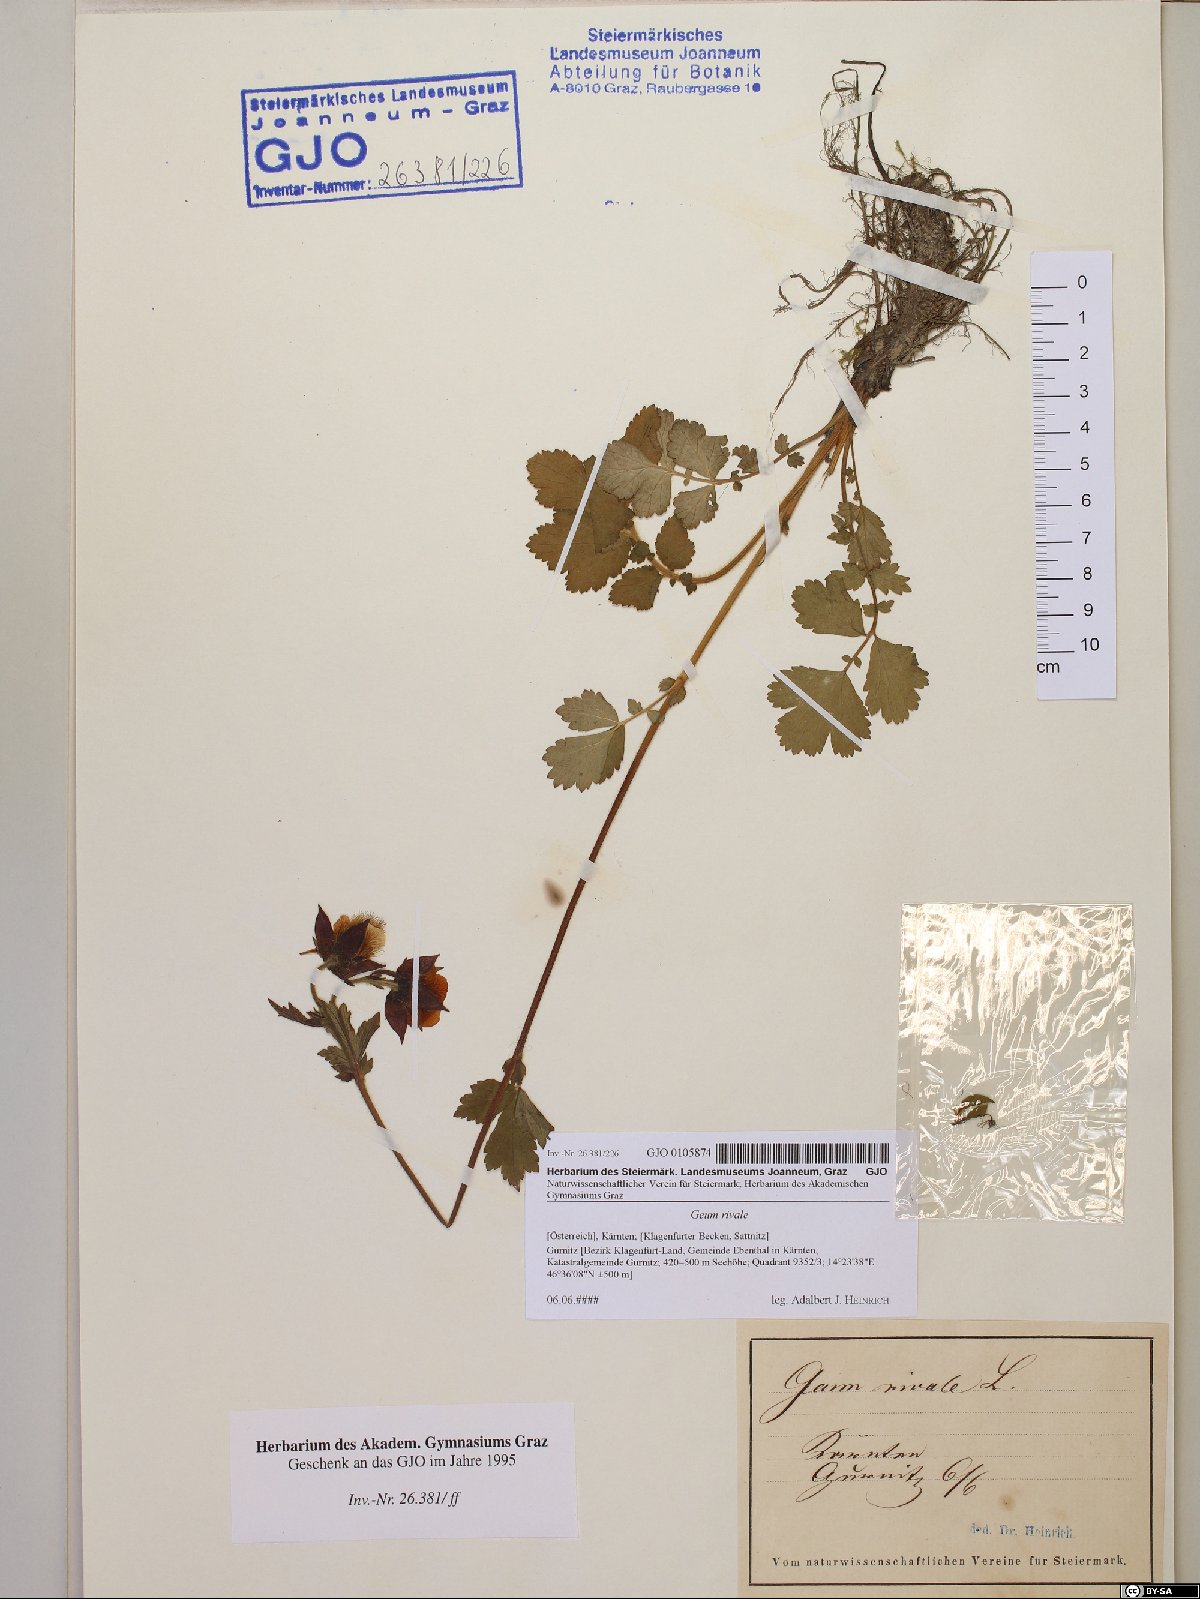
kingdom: Plantae
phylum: Tracheophyta
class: Magnoliopsida
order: Rosales
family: Rosaceae
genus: Geum
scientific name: Geum rivale
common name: Water avens
